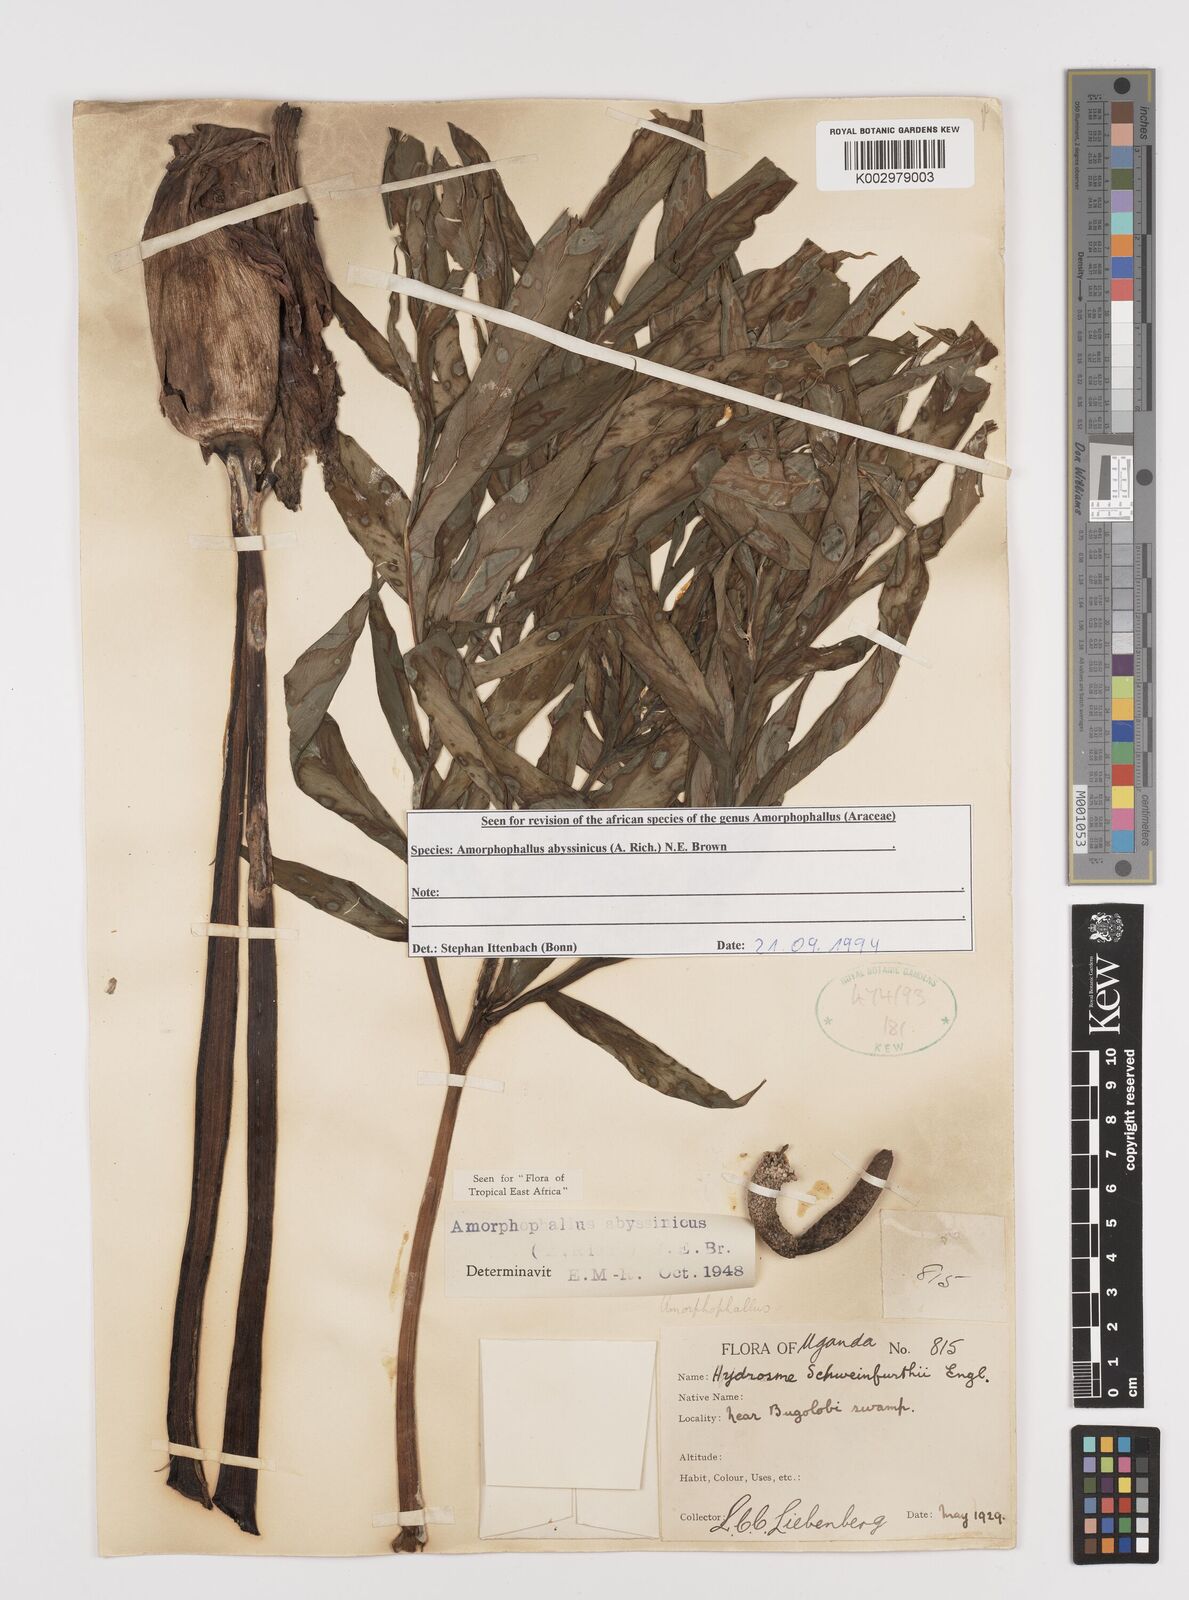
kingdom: Plantae
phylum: Tracheophyta
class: Liliopsida
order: Alismatales
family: Araceae
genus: Amorphophallus
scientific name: Amorphophallus abyssinicus
